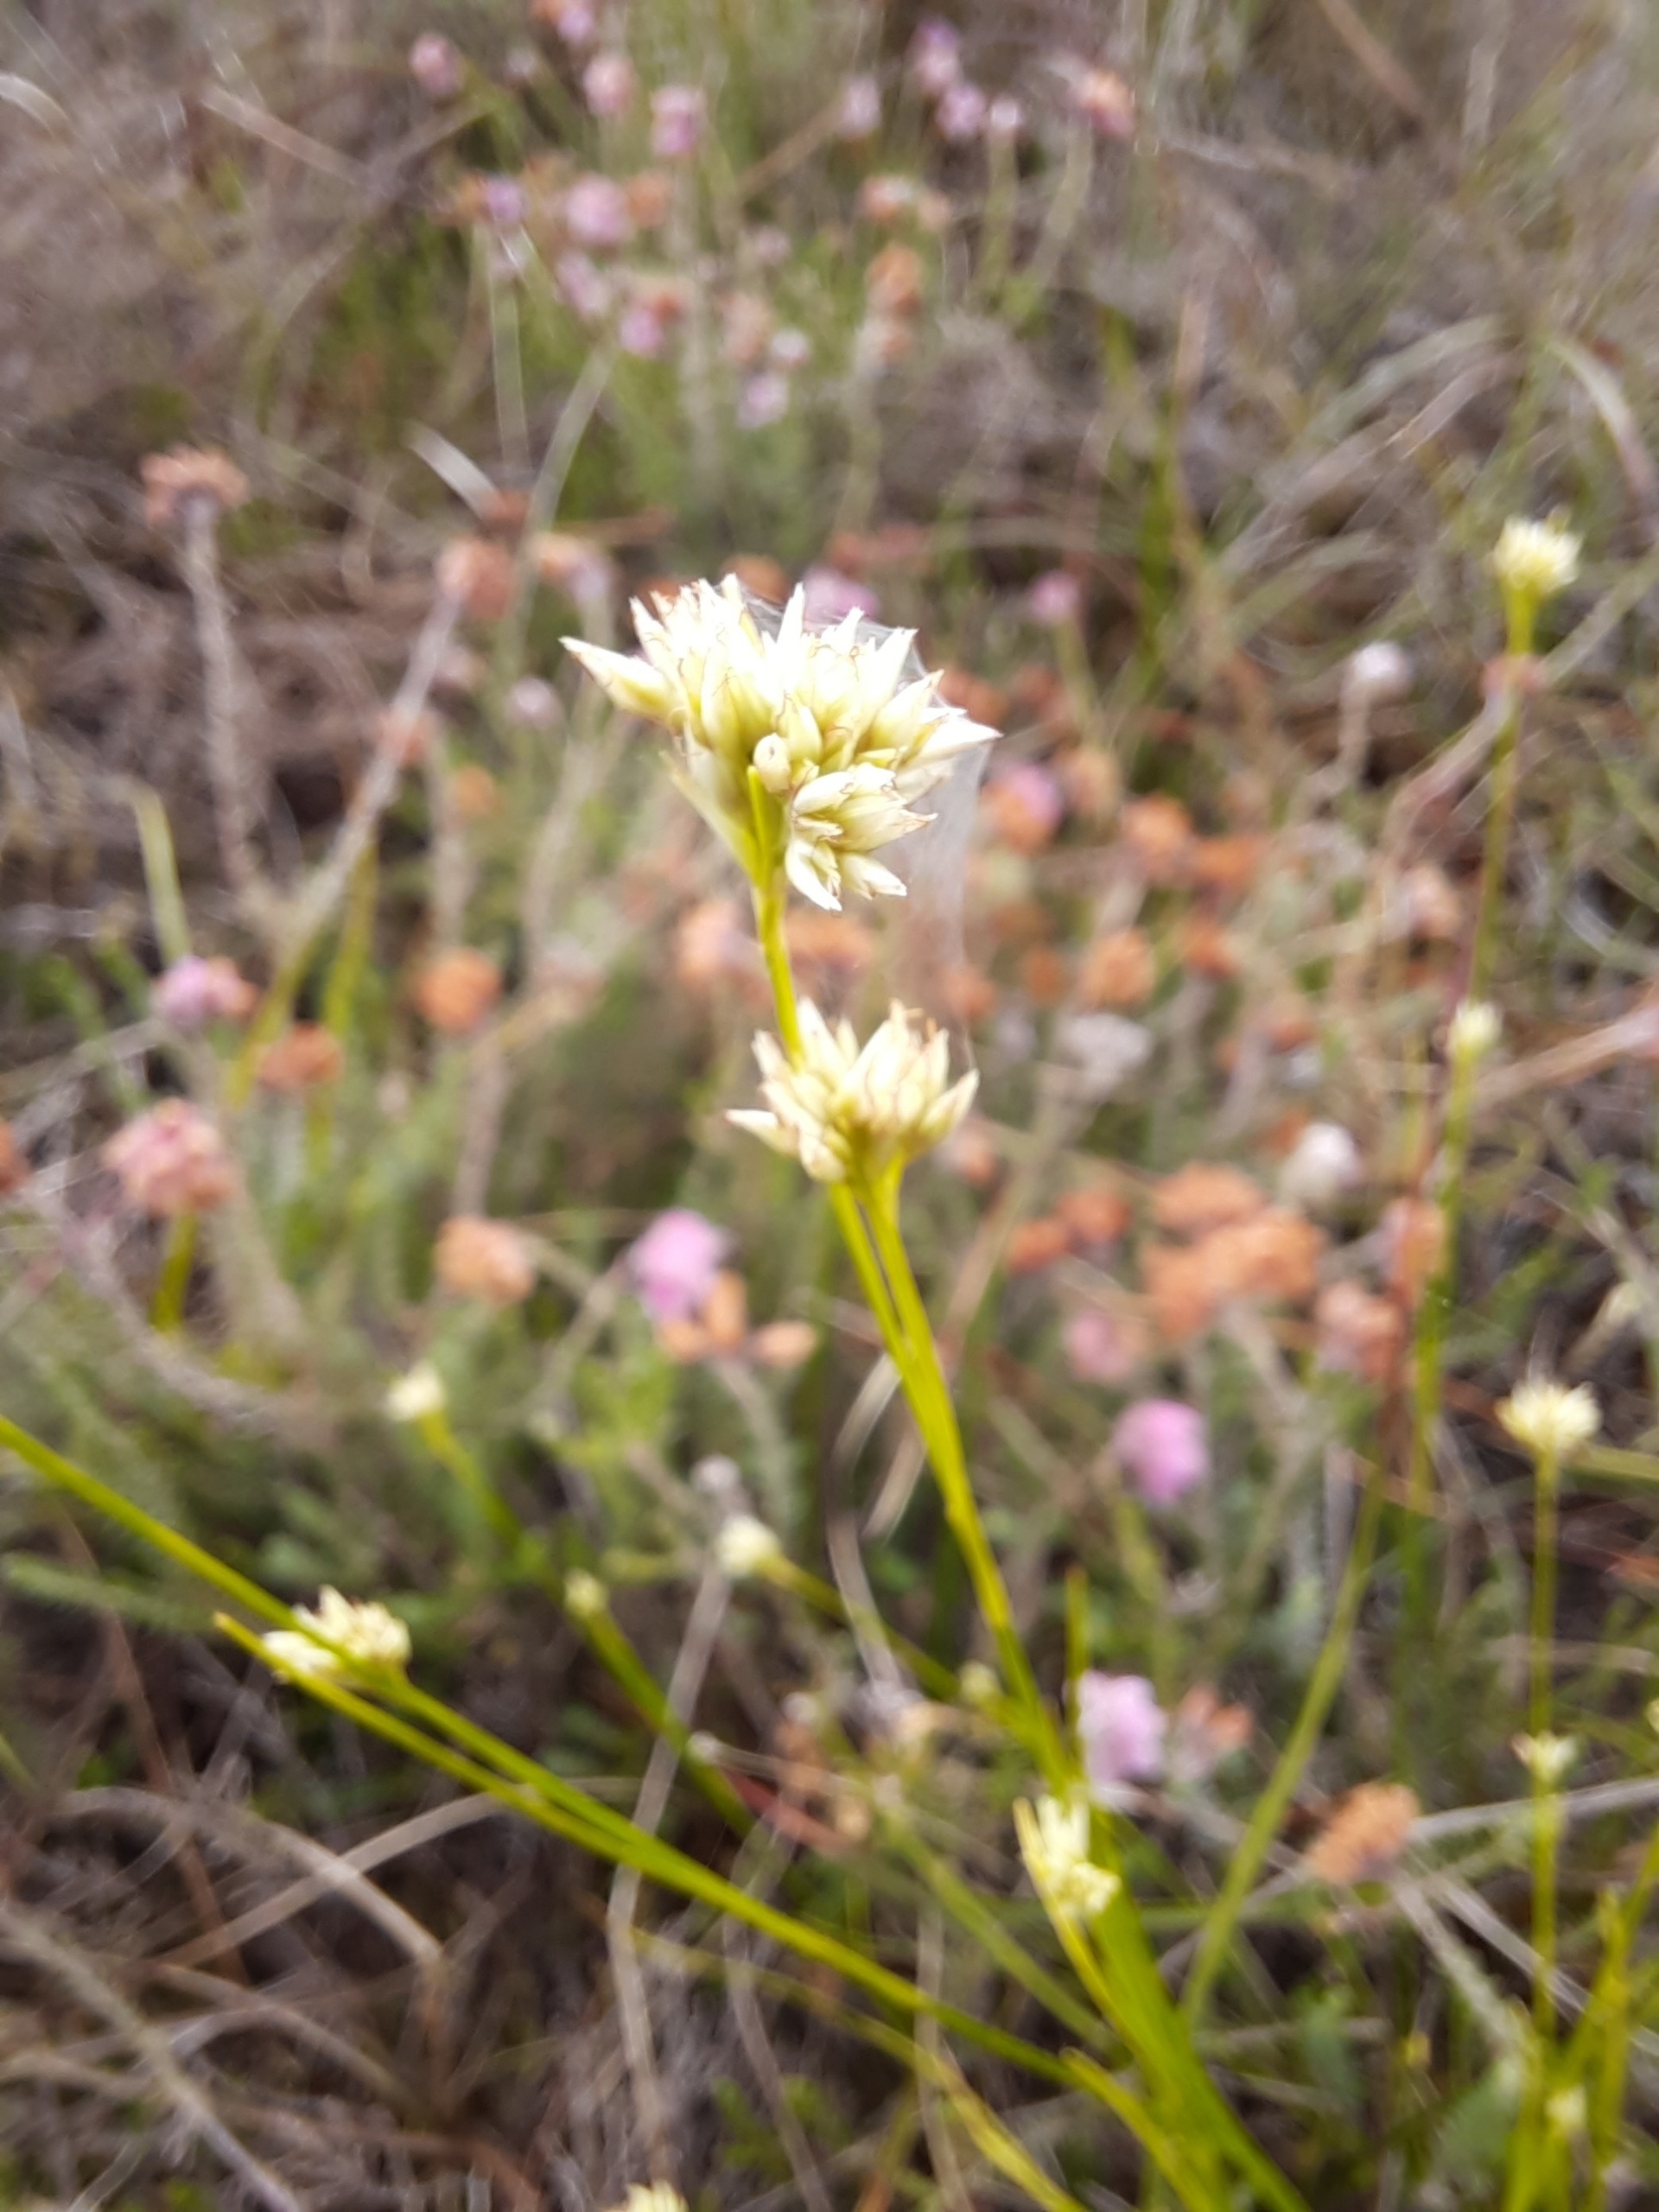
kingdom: Plantae
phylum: Tracheophyta
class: Liliopsida
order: Poales
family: Cyperaceae
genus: Rhynchospora
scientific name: Rhynchospora alba
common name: Hvid næbfrø
